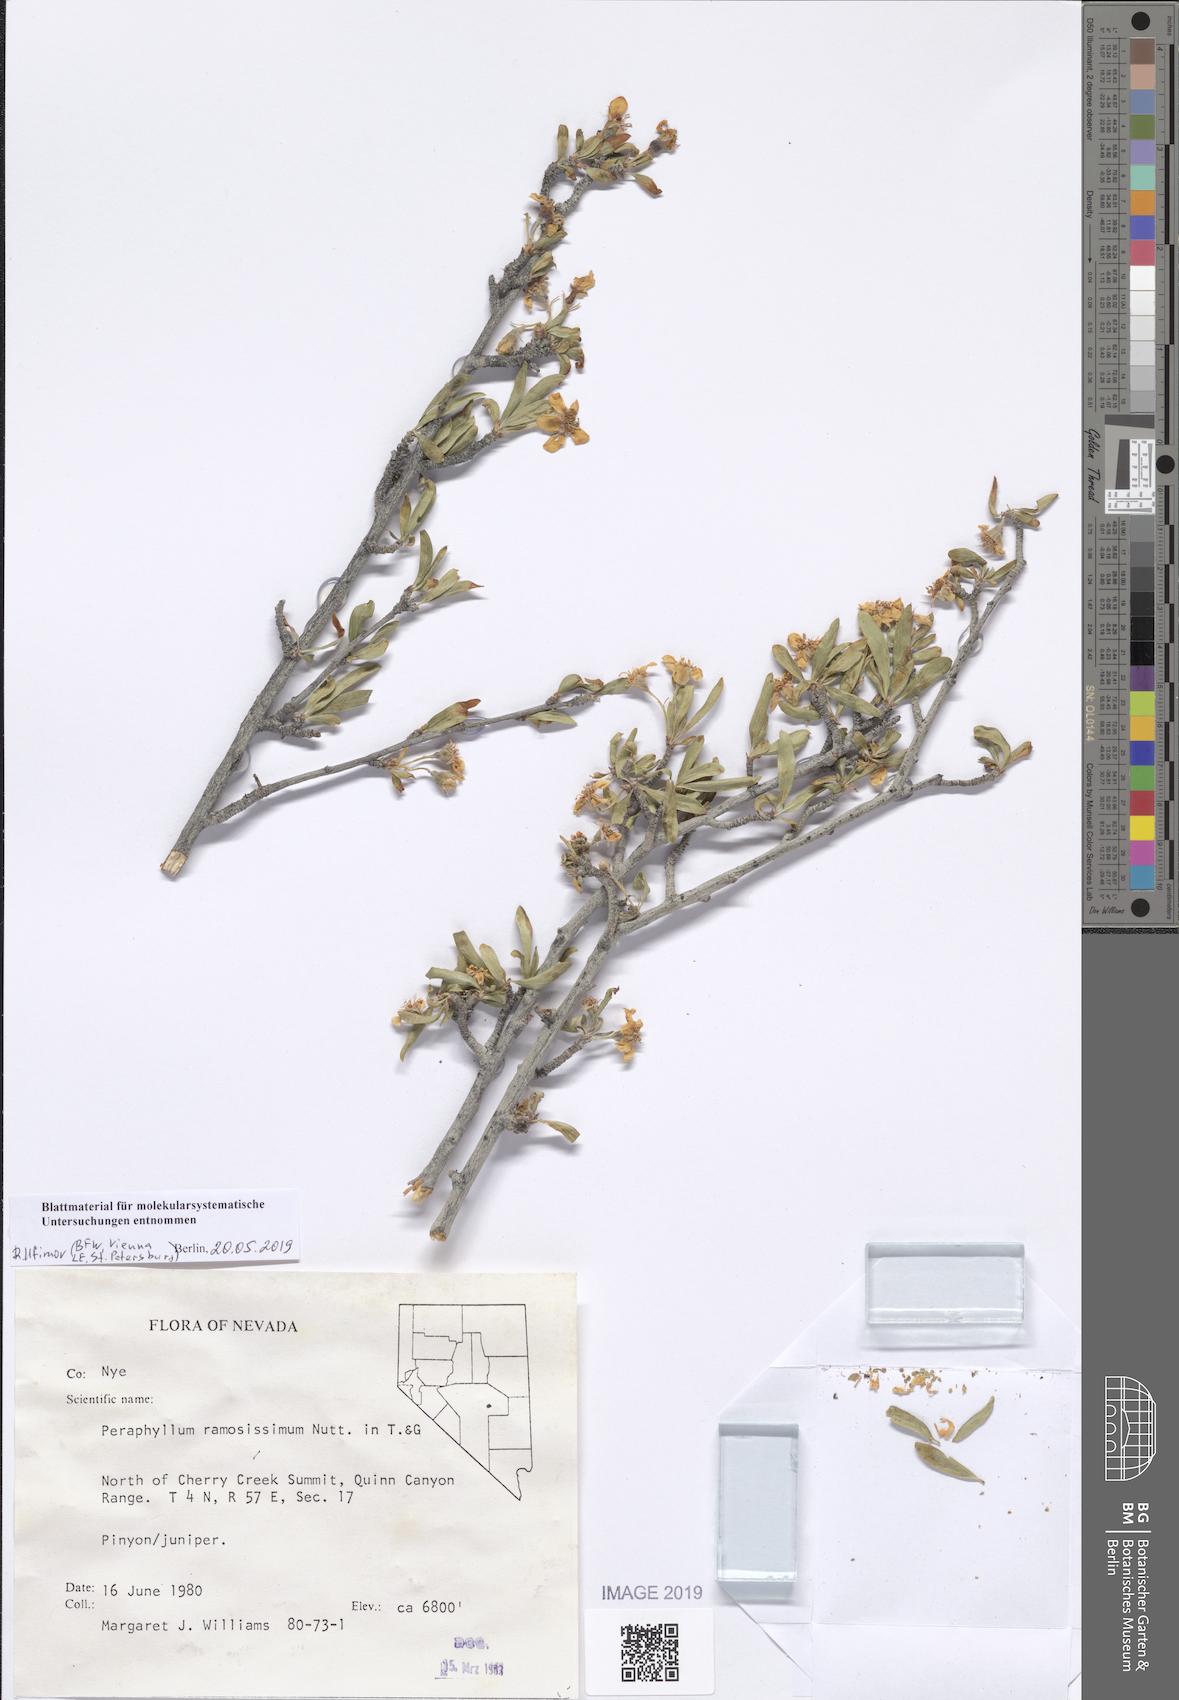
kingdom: Plantae
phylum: Tracheophyta
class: Magnoliopsida
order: Rosales
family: Rosaceae
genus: Amelanchier
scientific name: Amelanchier ramosissima
